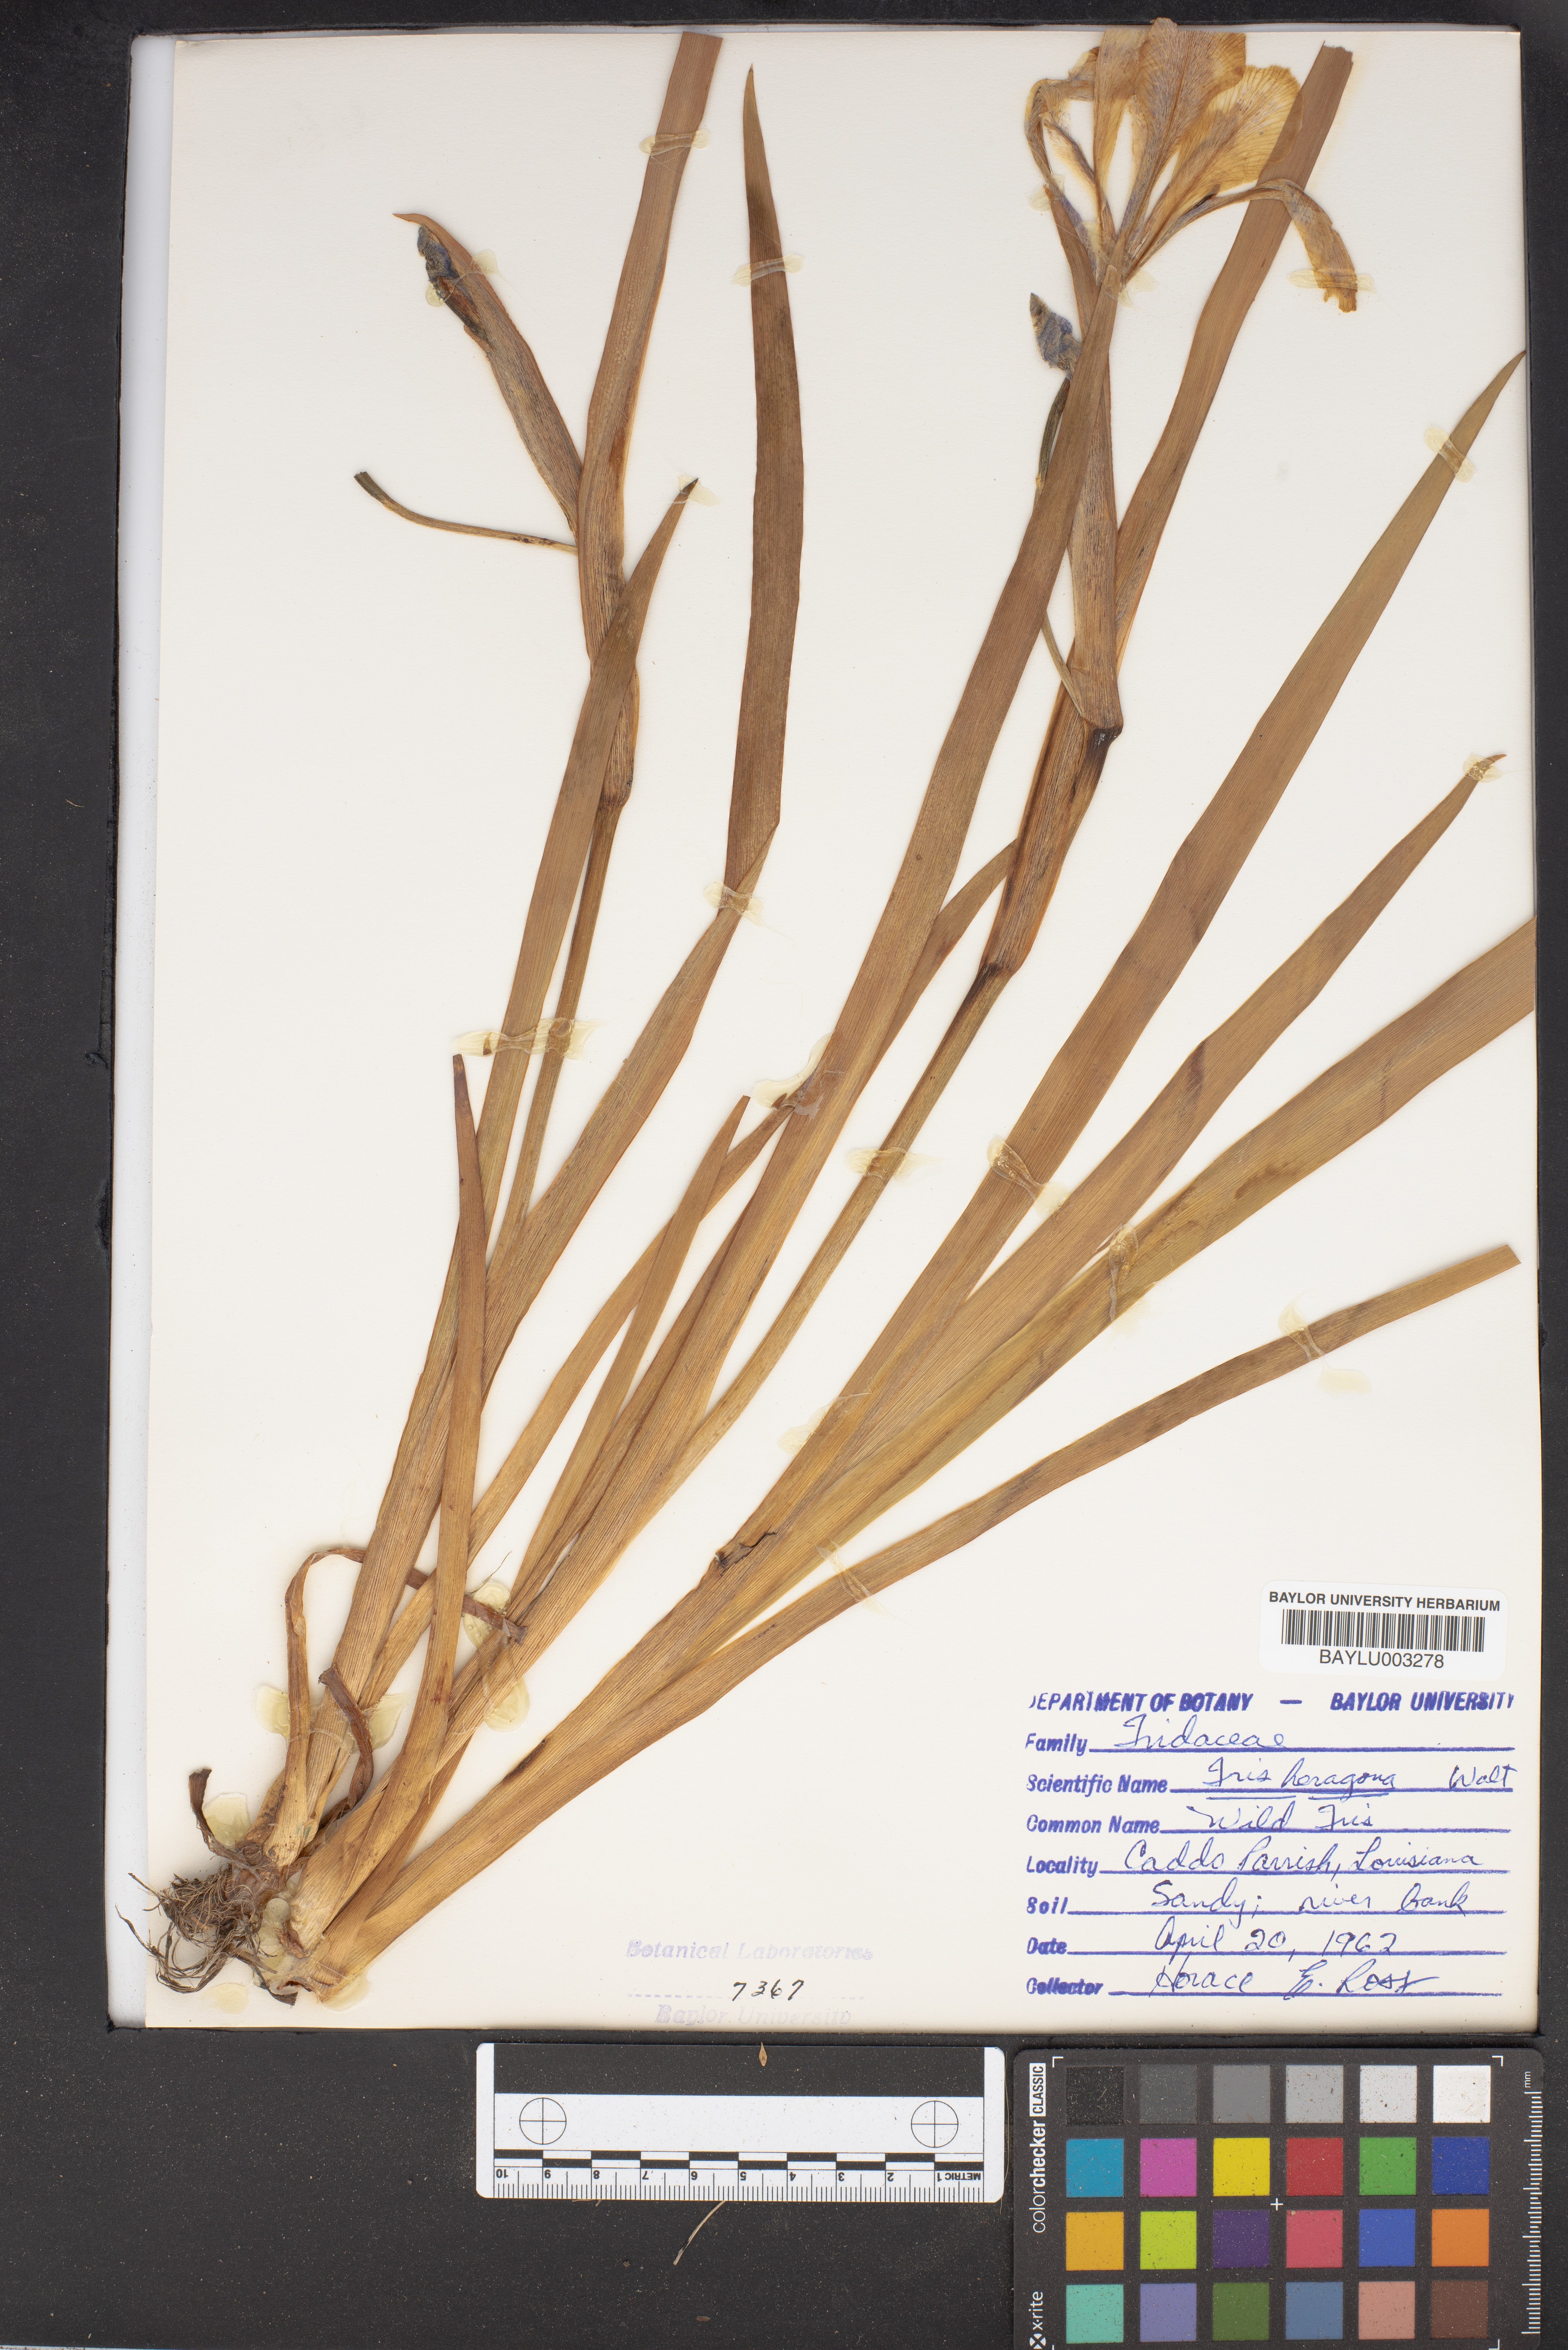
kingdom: Plantae
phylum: Tracheophyta
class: Liliopsida
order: Asparagales
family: Iridaceae
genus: Iris
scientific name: Iris hexagona
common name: Carolina iris
